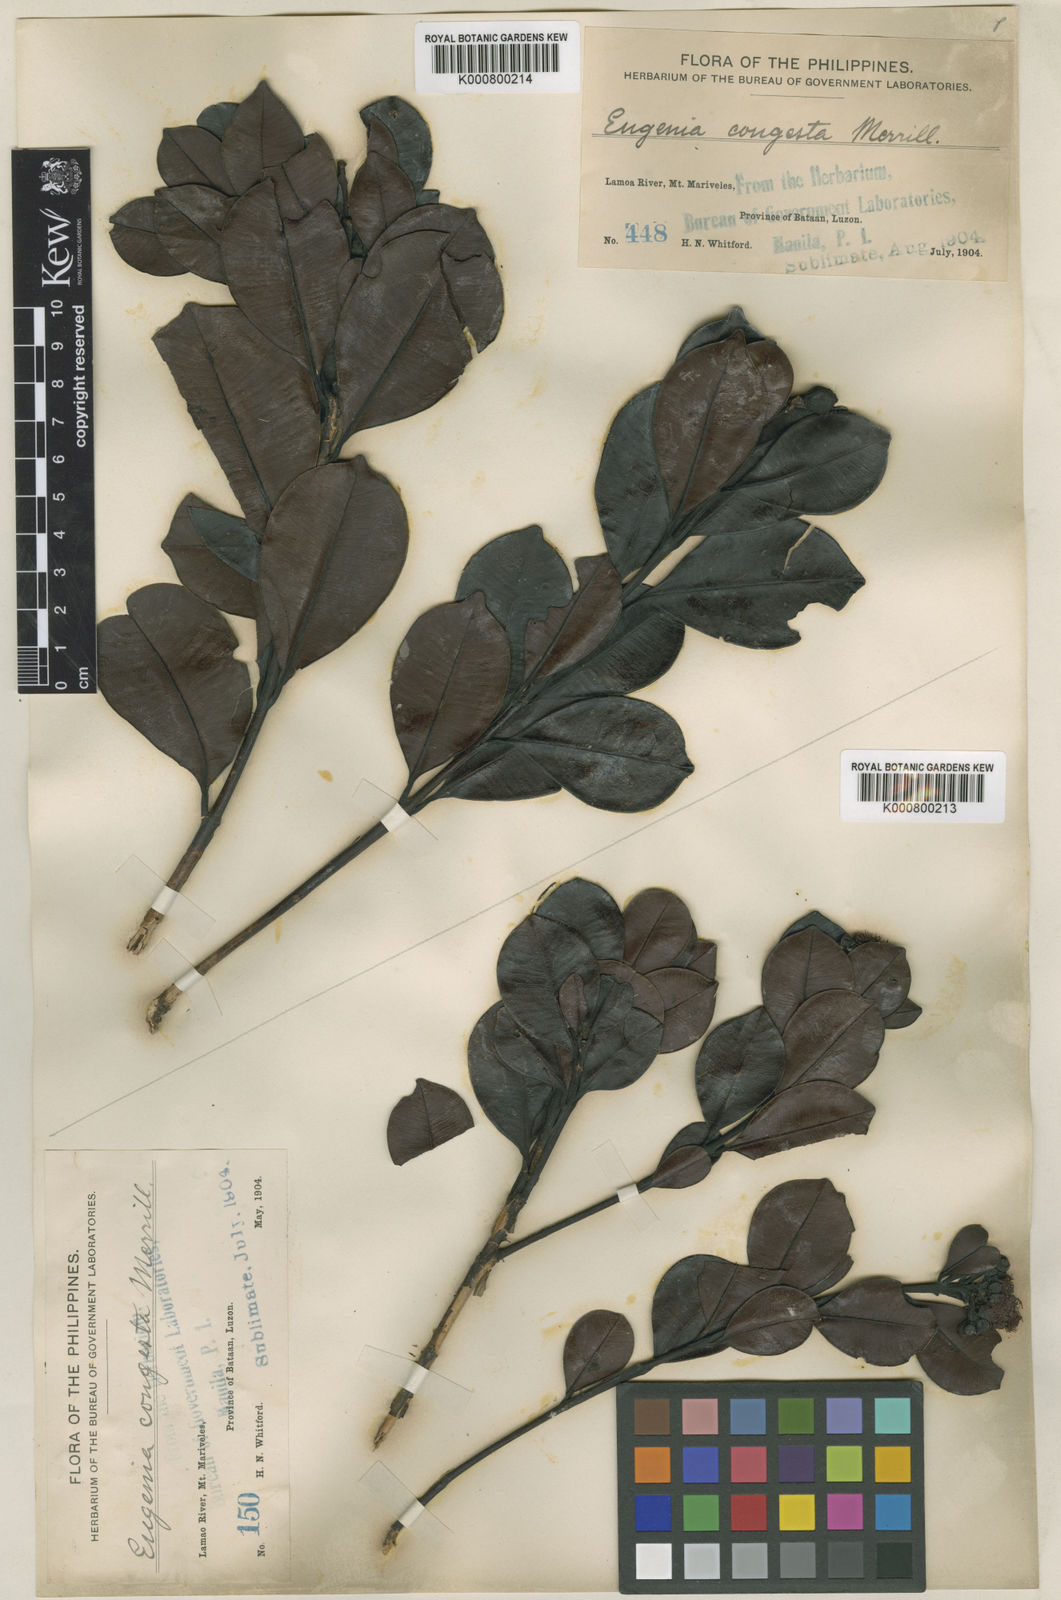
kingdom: Plantae
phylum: Tracheophyta
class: Magnoliopsida
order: Myrtales
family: Myrtaceae
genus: Syzygium
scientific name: Syzygium congestum
